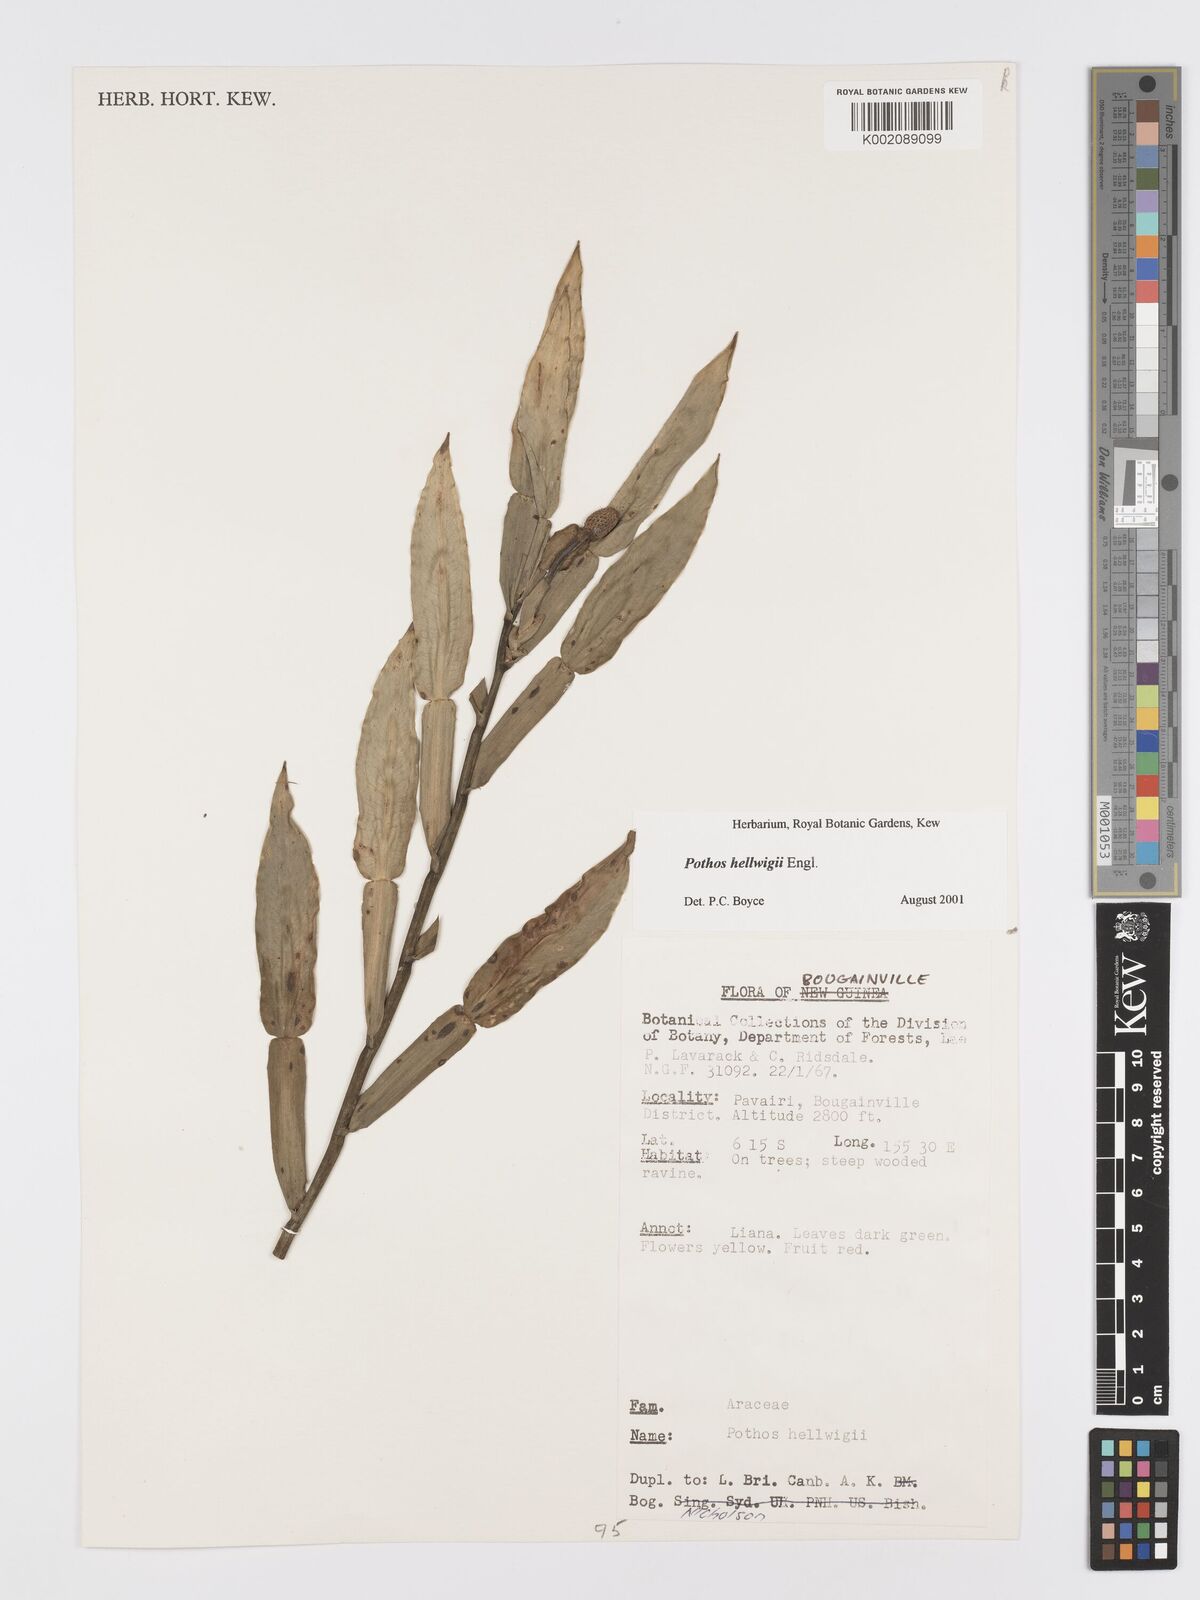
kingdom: Plantae
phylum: Tracheophyta
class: Liliopsida
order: Alismatales
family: Araceae
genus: Pothos
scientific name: Pothos hellwigii
